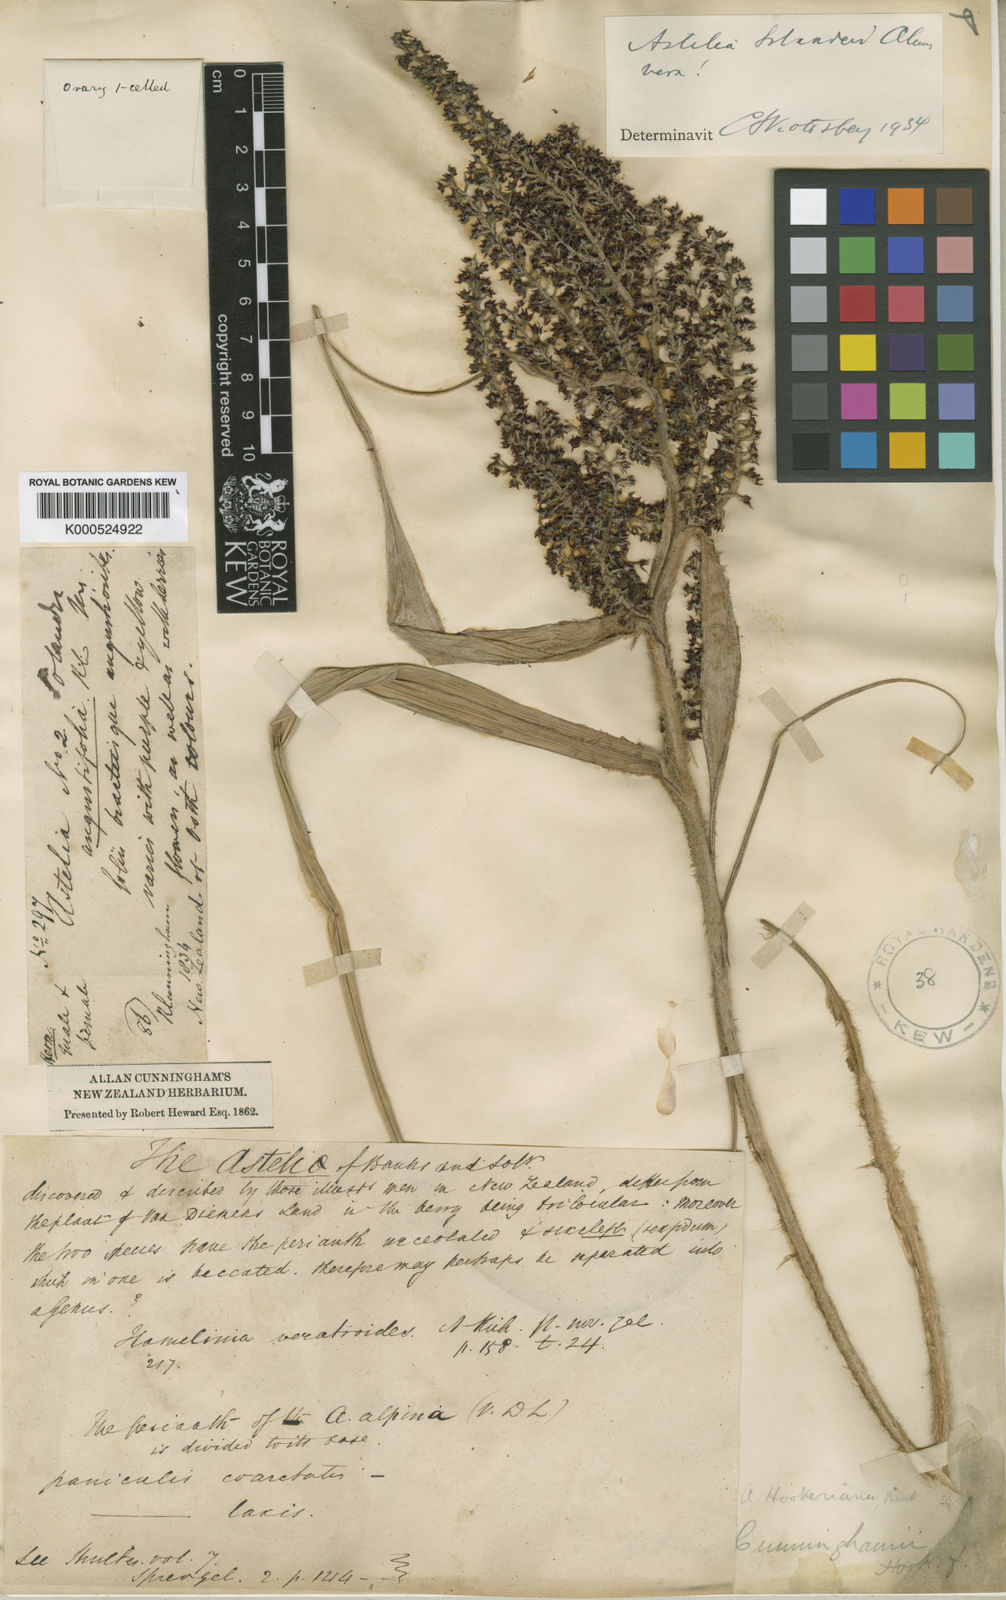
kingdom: Plantae
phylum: Tracheophyta
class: Liliopsida
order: Asparagales
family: Asteliaceae
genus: Astelia
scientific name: Astelia solandri
